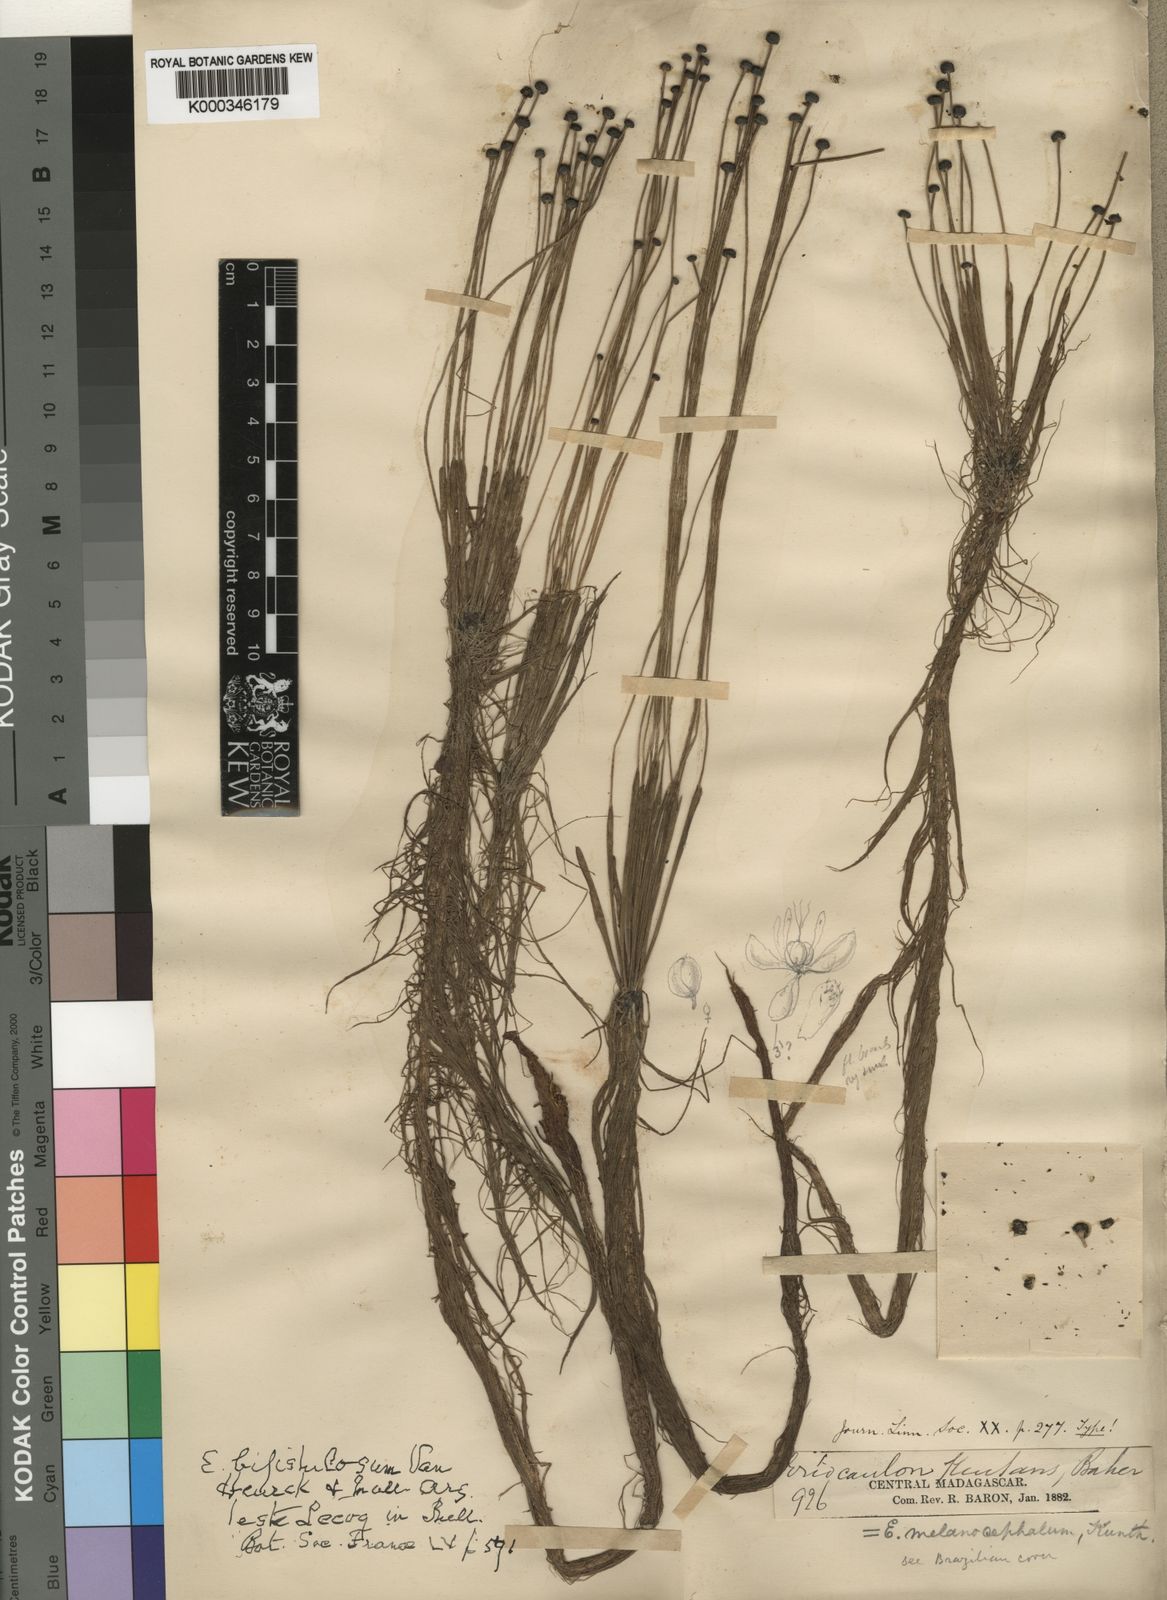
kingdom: Plantae
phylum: Tracheophyta
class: Liliopsida
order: Poales
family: Eriocaulaceae
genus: Eriocaulon
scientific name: Eriocaulon setaceum
